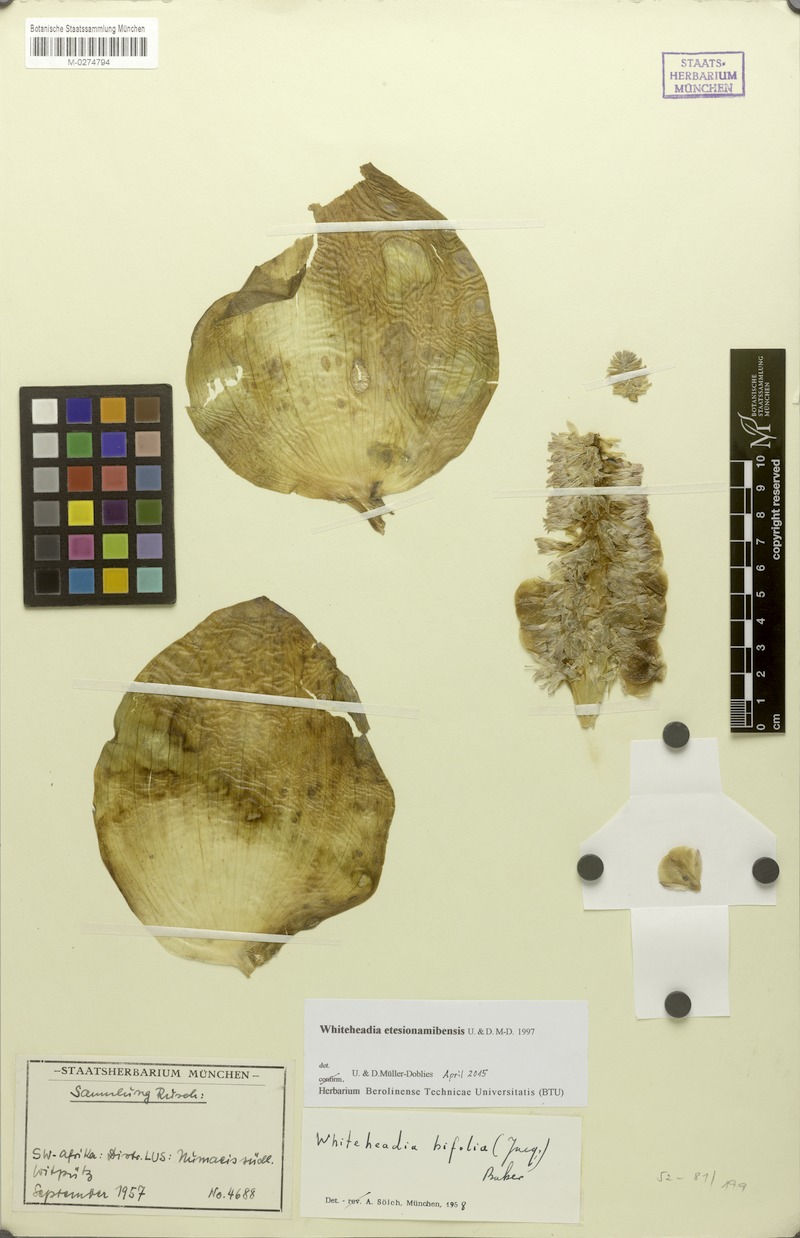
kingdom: Plantae
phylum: Tracheophyta
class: Liliopsida
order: Asparagales
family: Asparagaceae
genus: Massonia
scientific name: Massonia etesionamibensis
